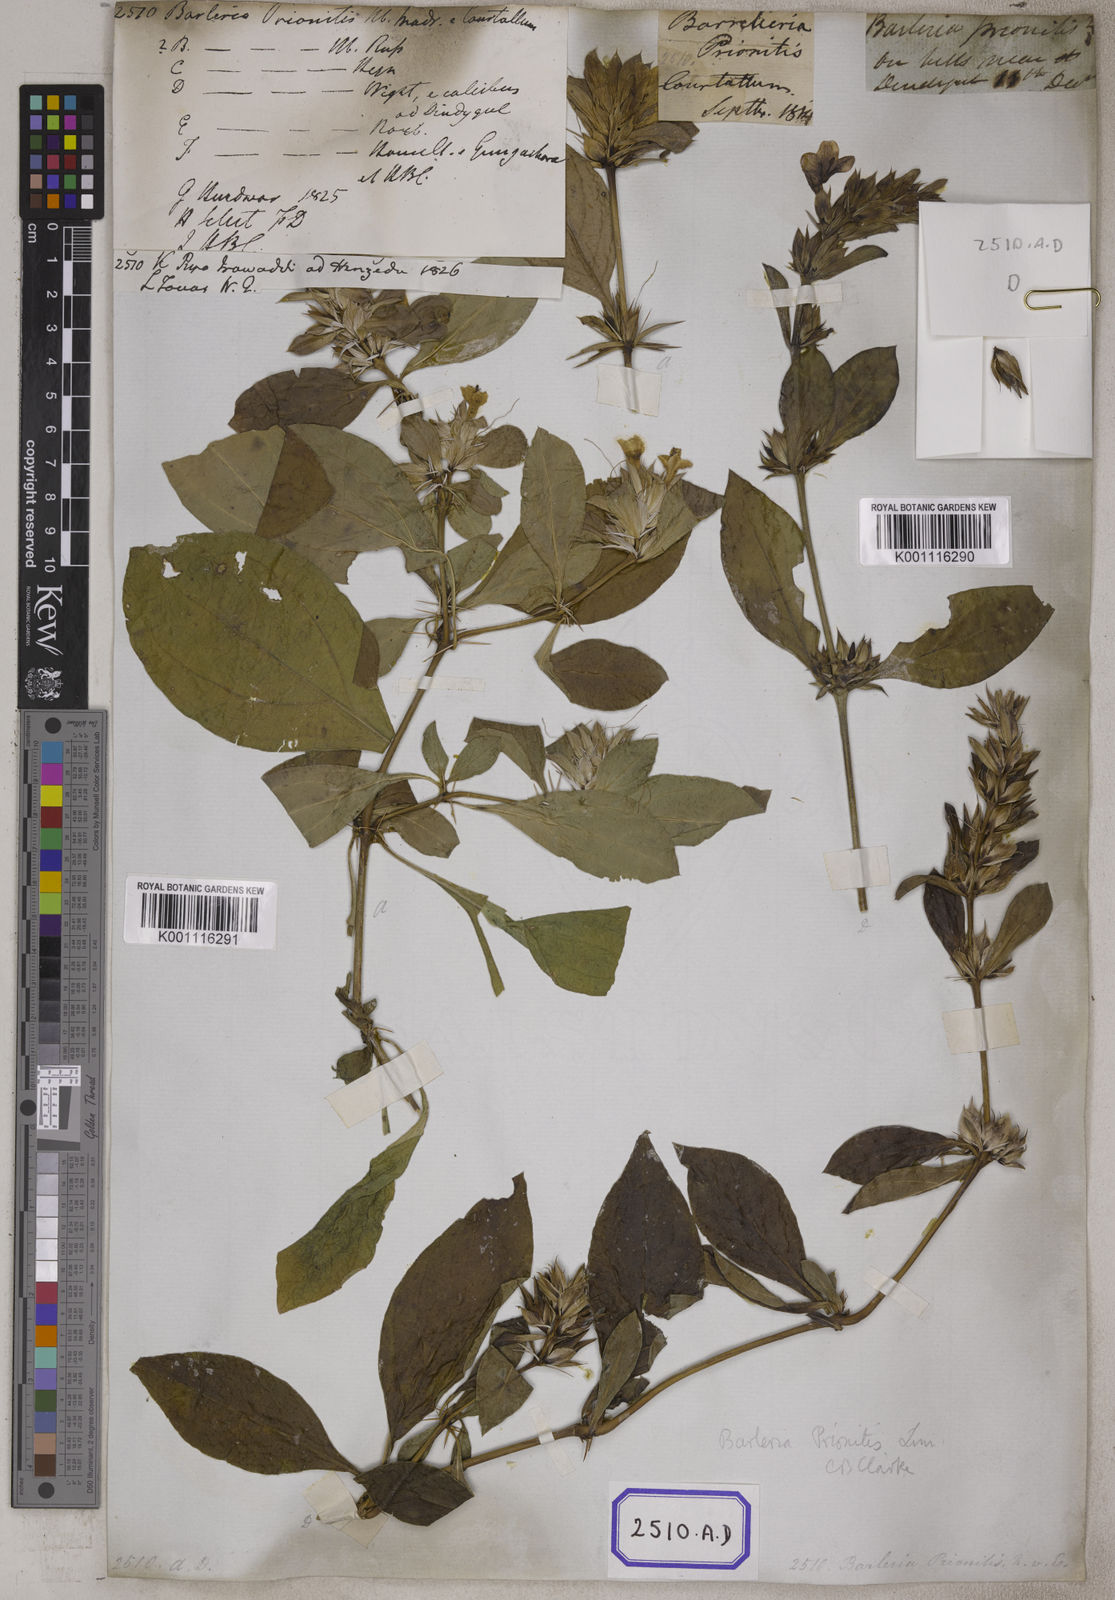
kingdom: Plantae
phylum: Tracheophyta
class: Magnoliopsida
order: Lamiales
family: Acanthaceae
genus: Barleria
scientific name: Barleria prionitis
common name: Barleria
